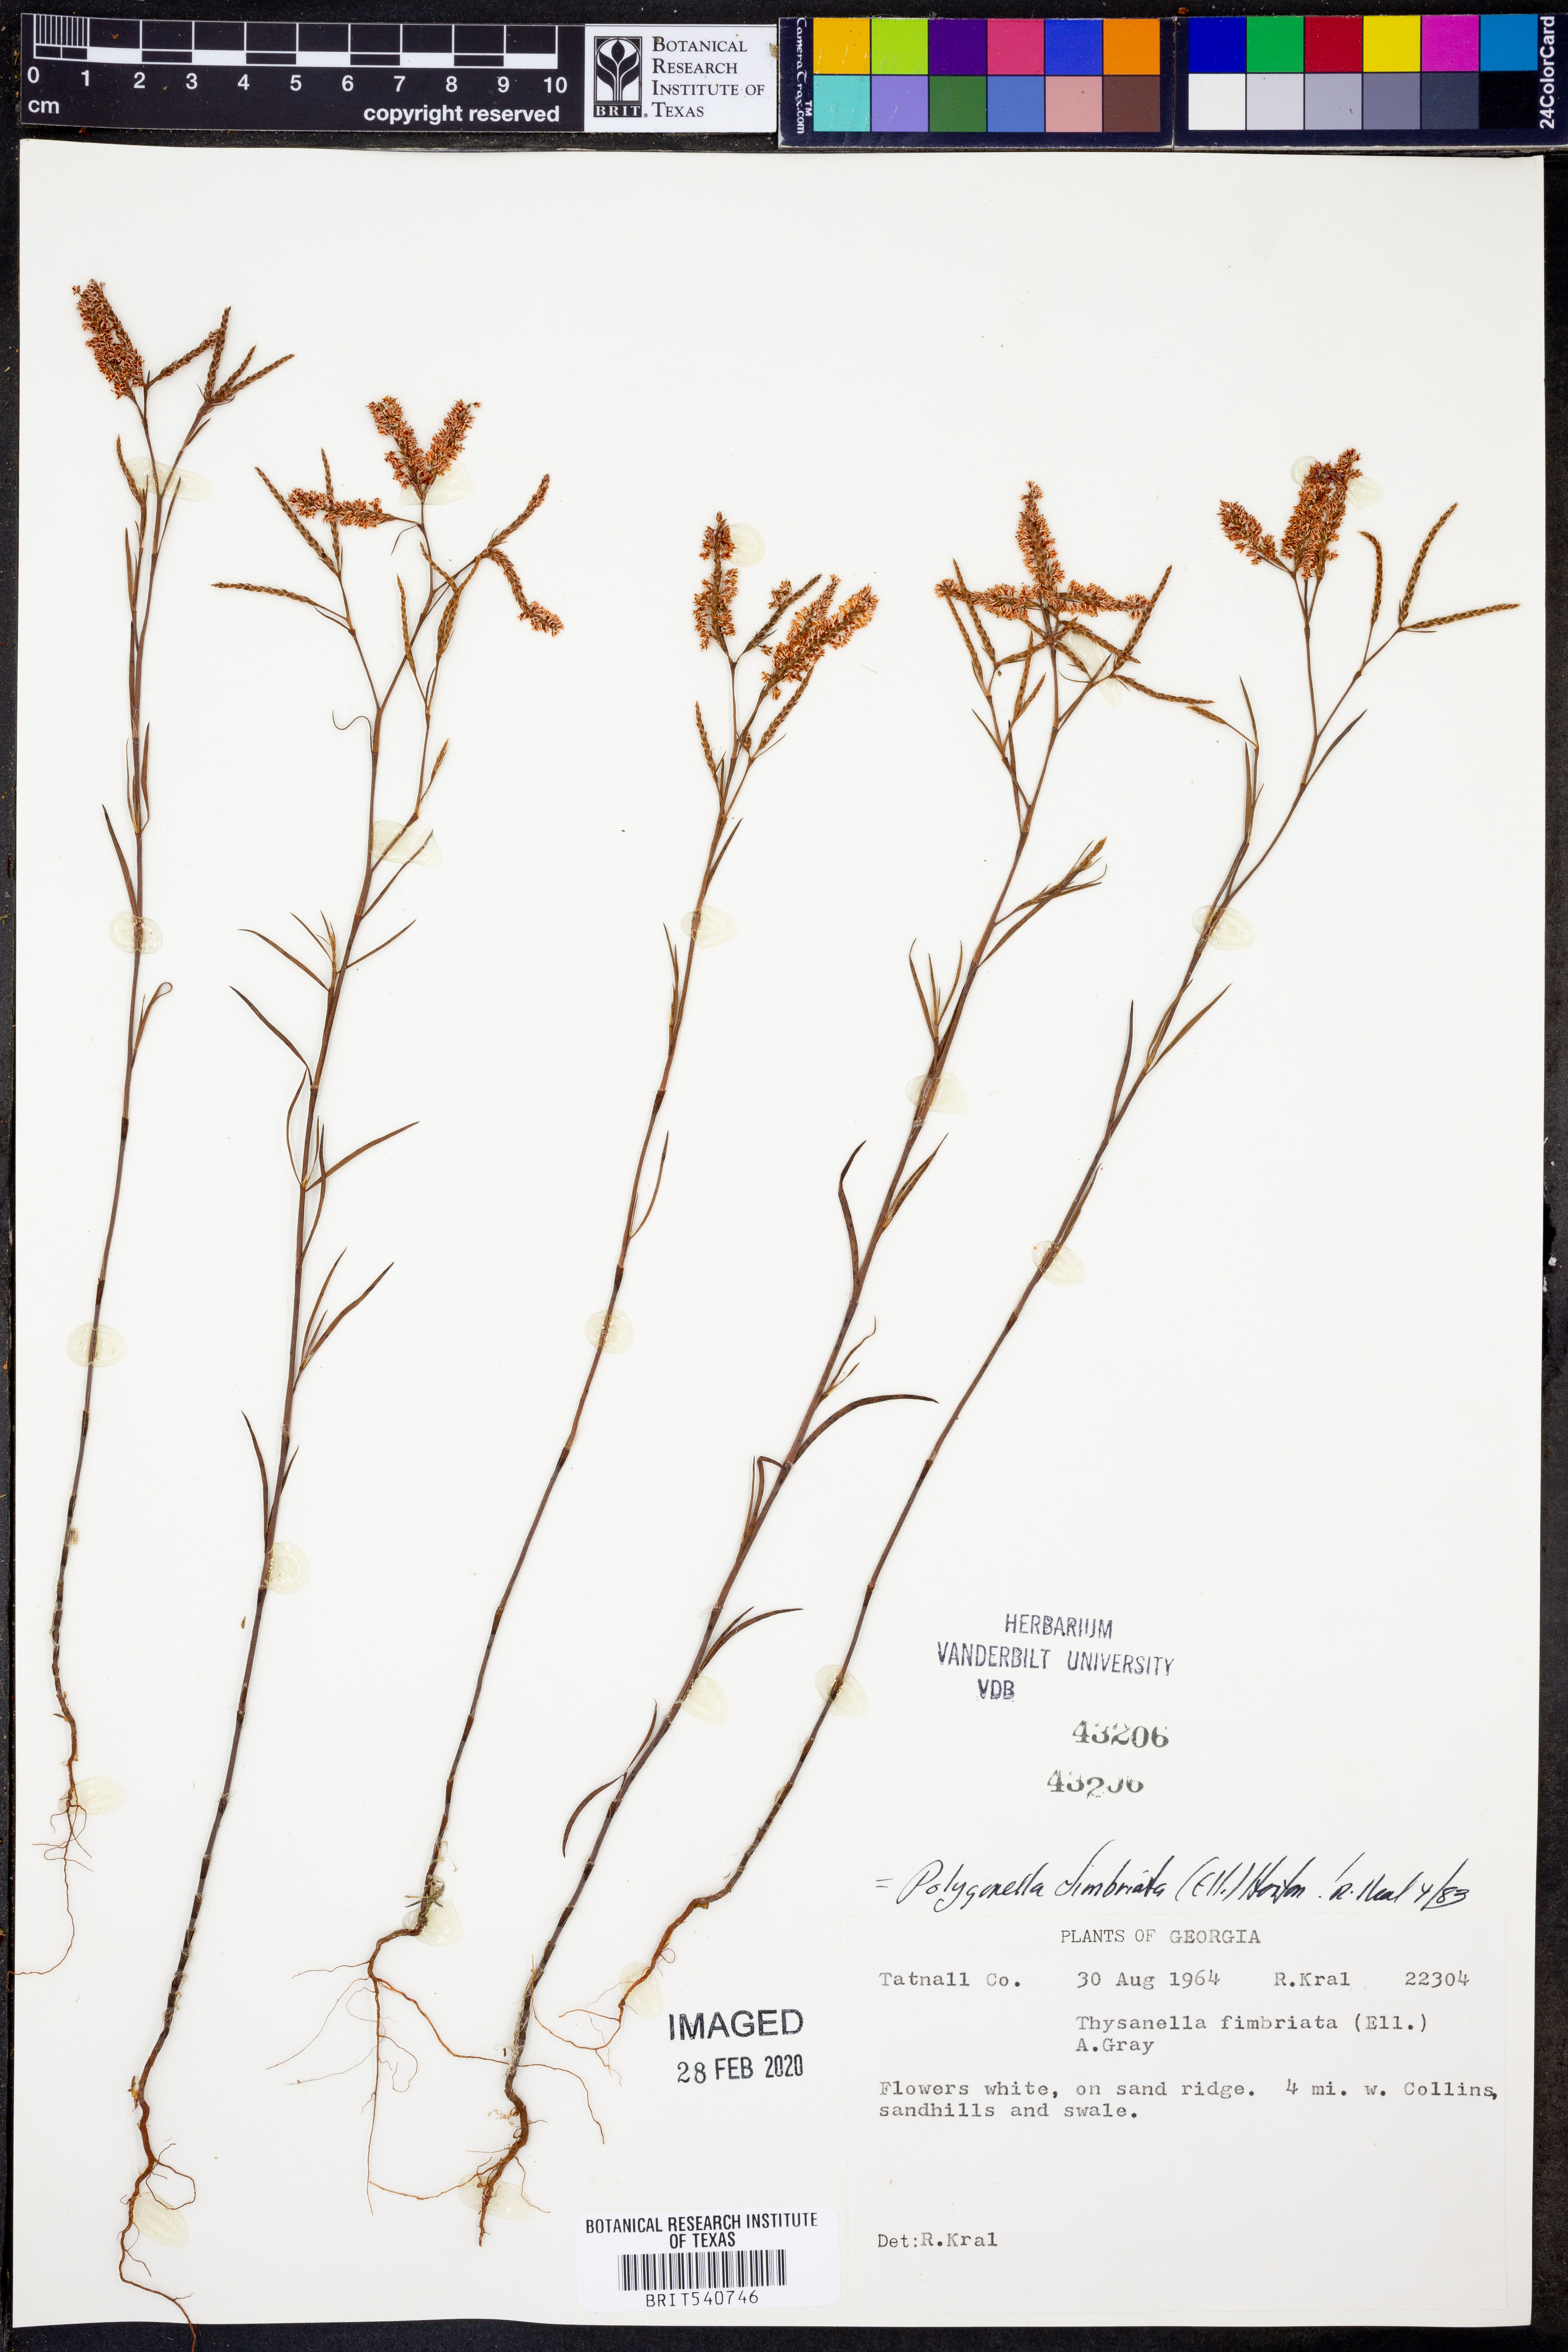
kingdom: Plantae
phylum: Tracheophyta
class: Magnoliopsida
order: Caryophyllales
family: Polygonaceae
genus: Polygonella
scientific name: Polygonella fimbriata
